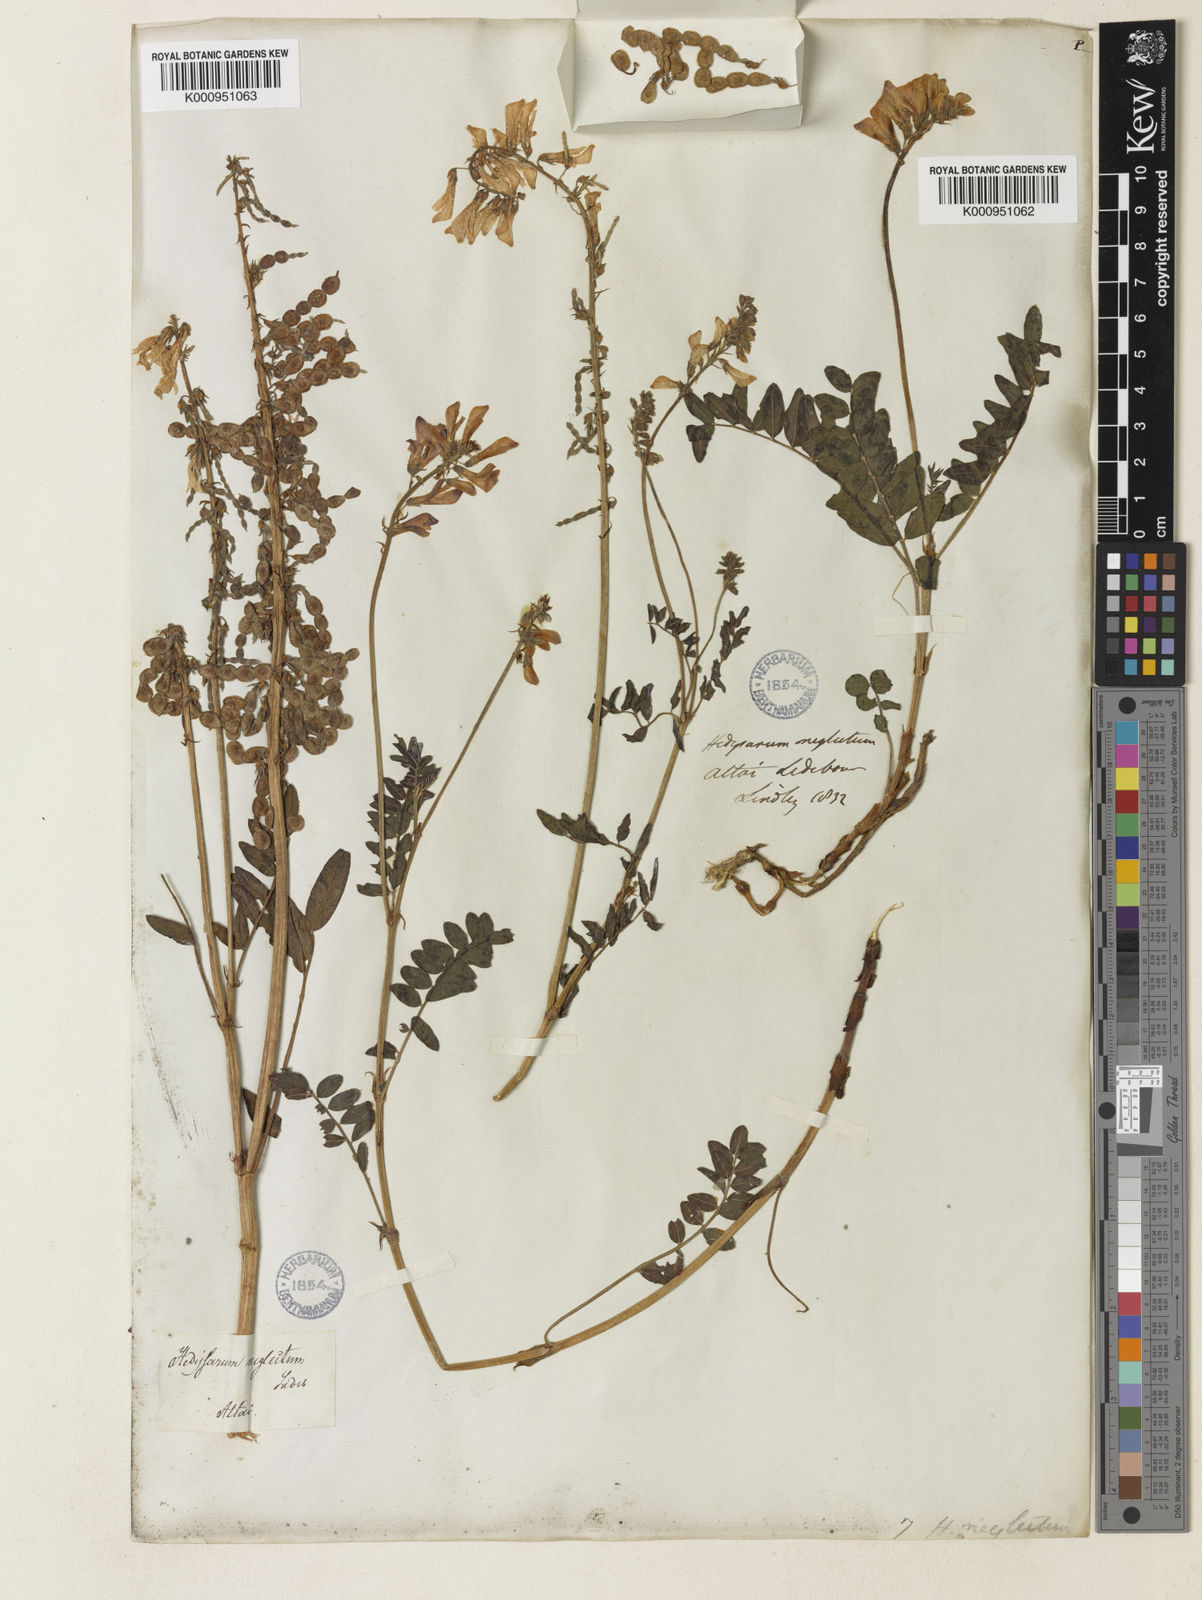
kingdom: Plantae
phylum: Tracheophyta
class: Magnoliopsida
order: Fabales
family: Fabaceae
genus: Hedysarum
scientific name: Hedysarum hedysaroides
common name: Alpine french-honeysuckle
